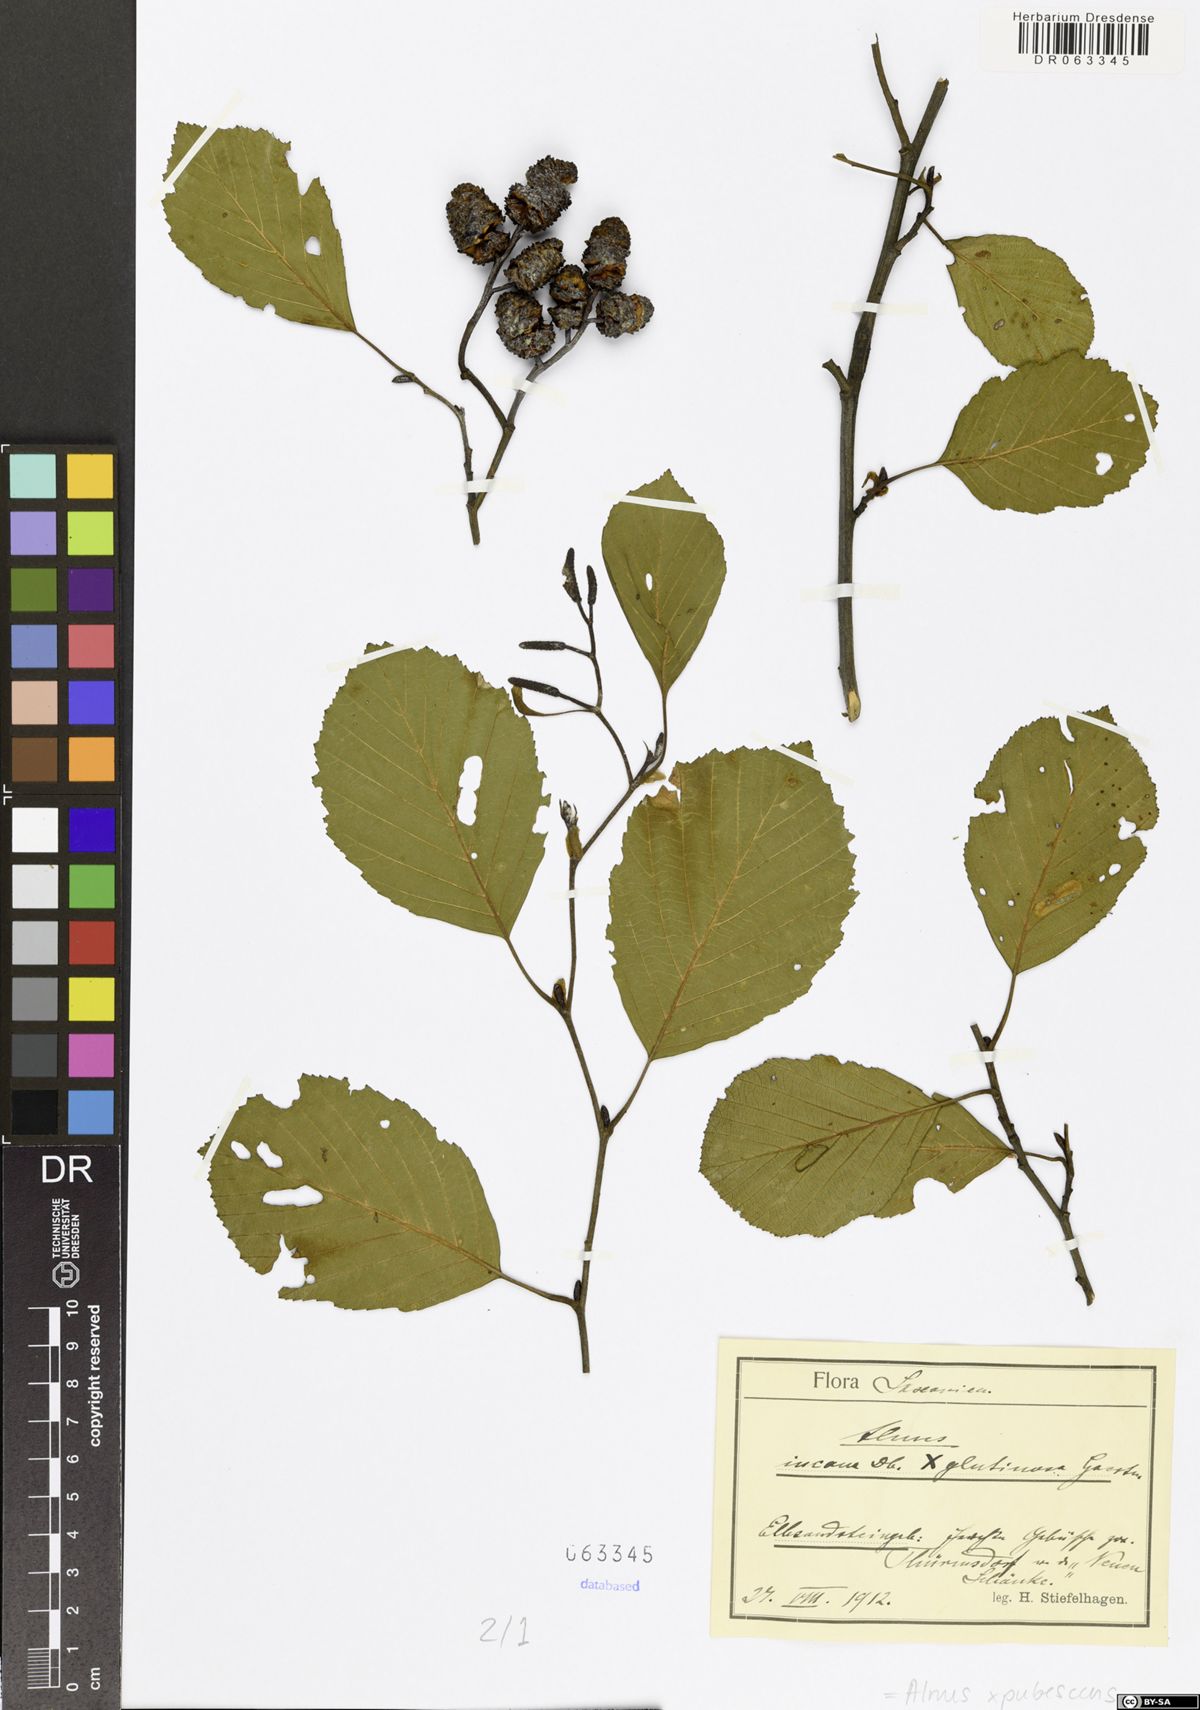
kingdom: Plantae
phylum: Tracheophyta
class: Magnoliopsida
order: Fagales
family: Betulaceae
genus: Alnus
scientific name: Alnus pubescens
